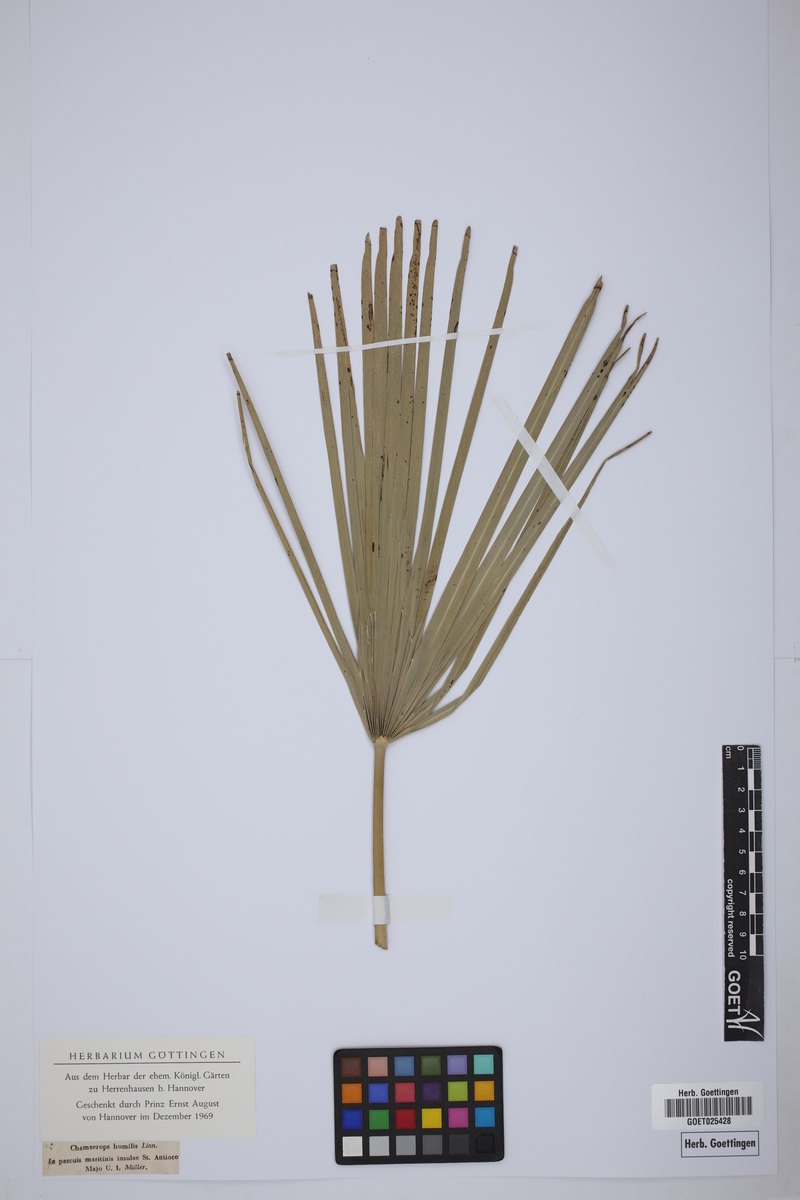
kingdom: Plantae
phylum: Tracheophyta
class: Liliopsida
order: Arecales
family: Arecaceae
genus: Chamaerops
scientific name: Chamaerops humilis
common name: Dwarf fan palm
